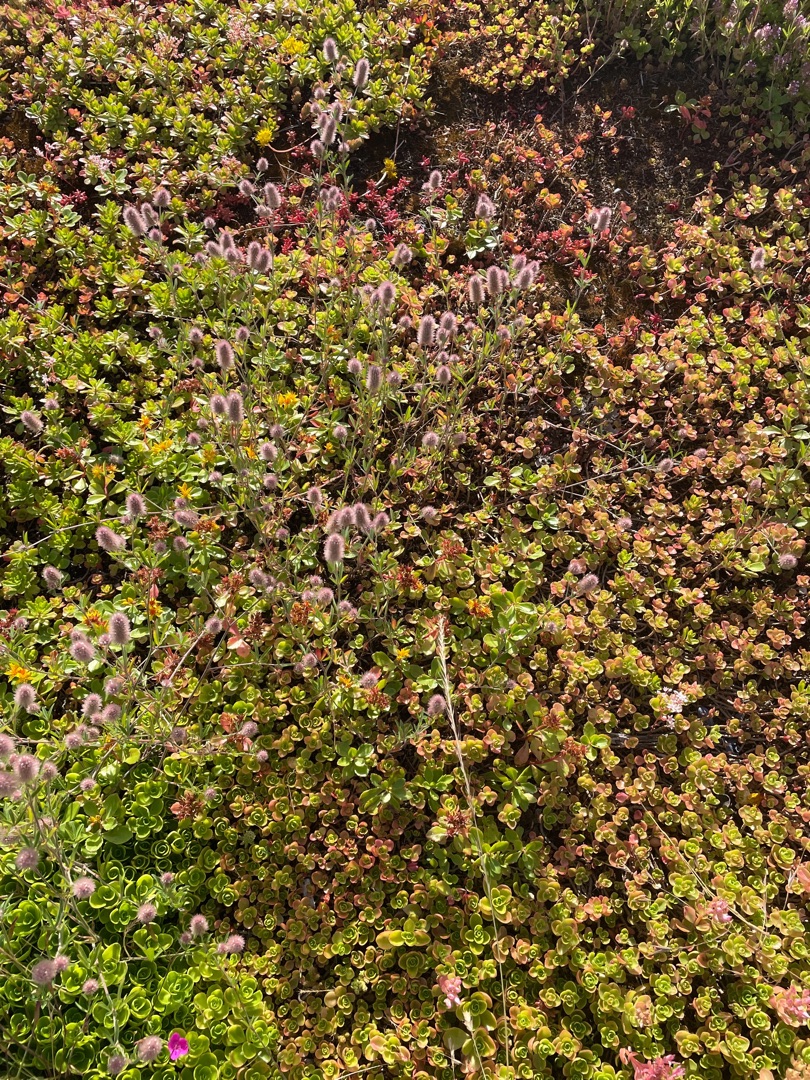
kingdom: Plantae
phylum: Tracheophyta
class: Magnoliopsida
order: Fabales
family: Fabaceae
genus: Trifolium
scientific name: Trifolium arvense
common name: Hare-kløver
